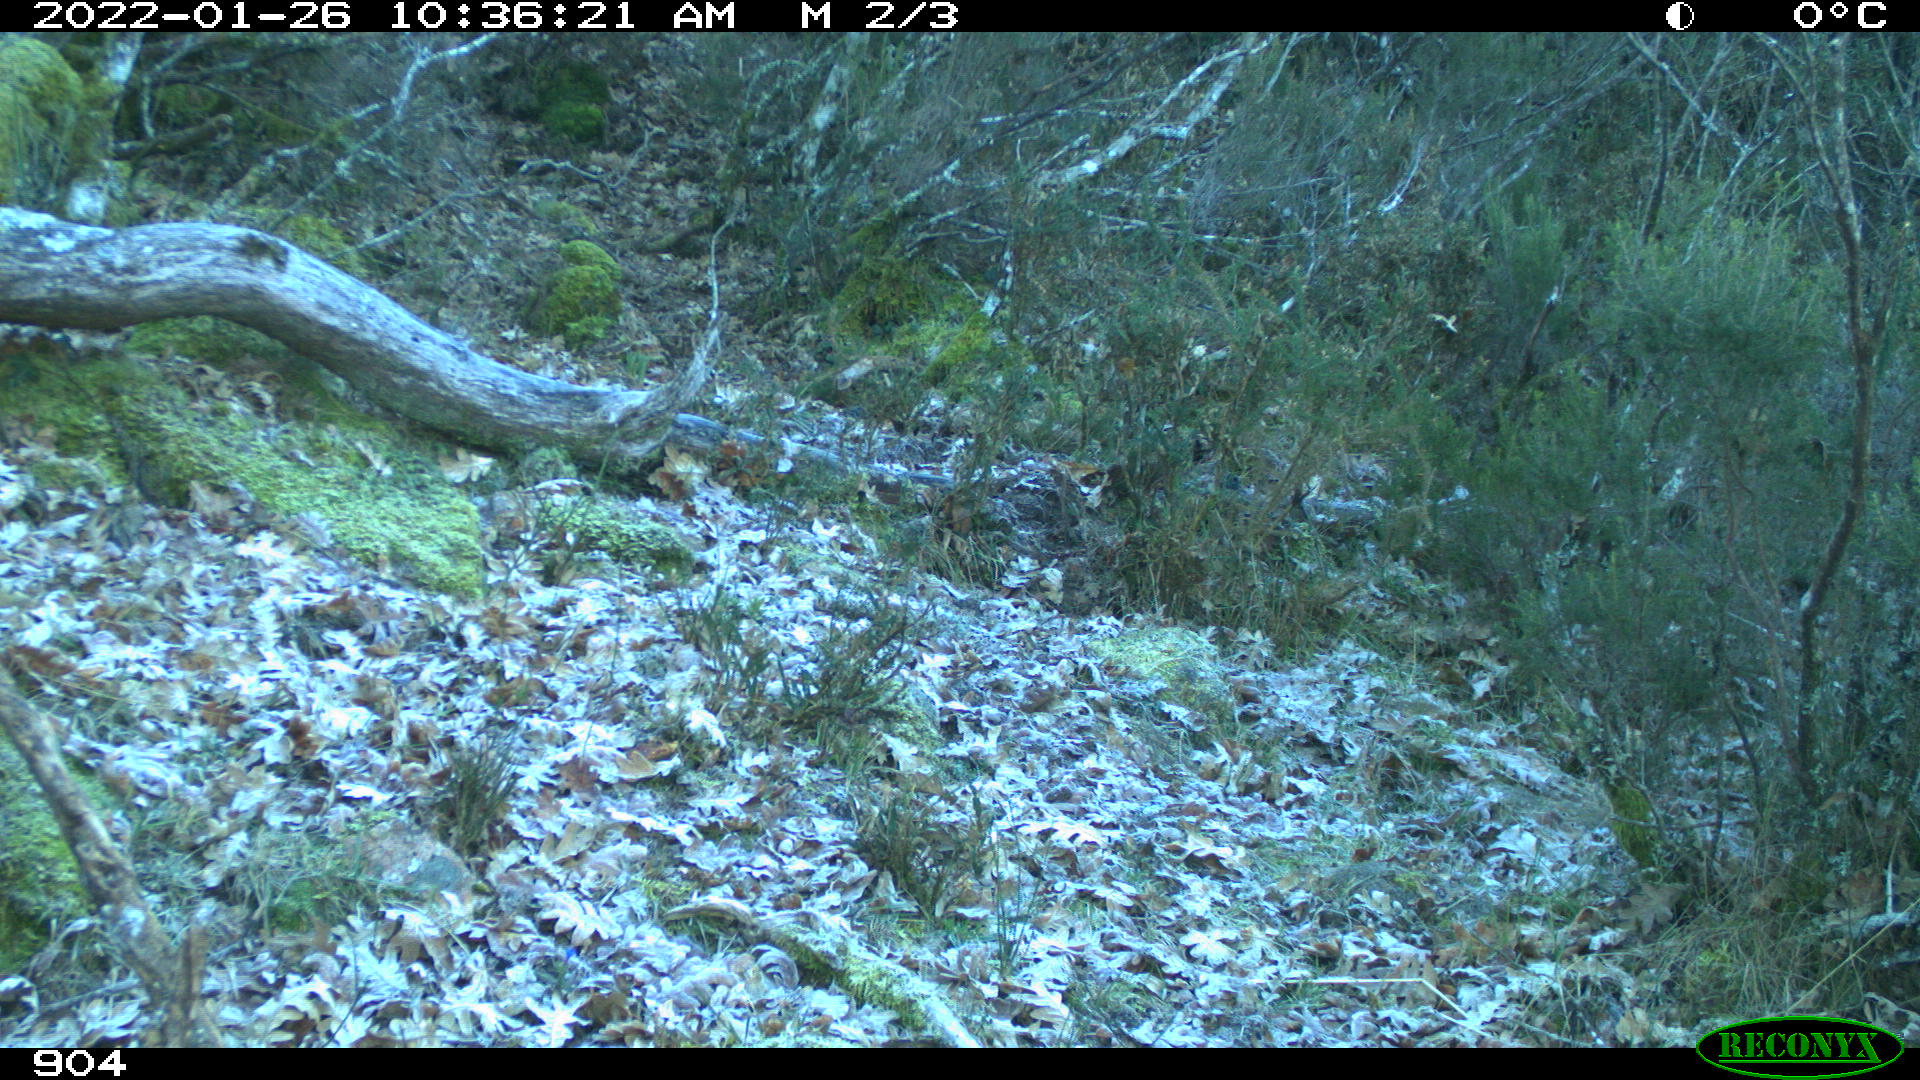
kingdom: Animalia
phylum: Chordata
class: Mammalia
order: Artiodactyla
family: Bovidae
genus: Bos
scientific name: Bos taurus
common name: Domesticated cattle
